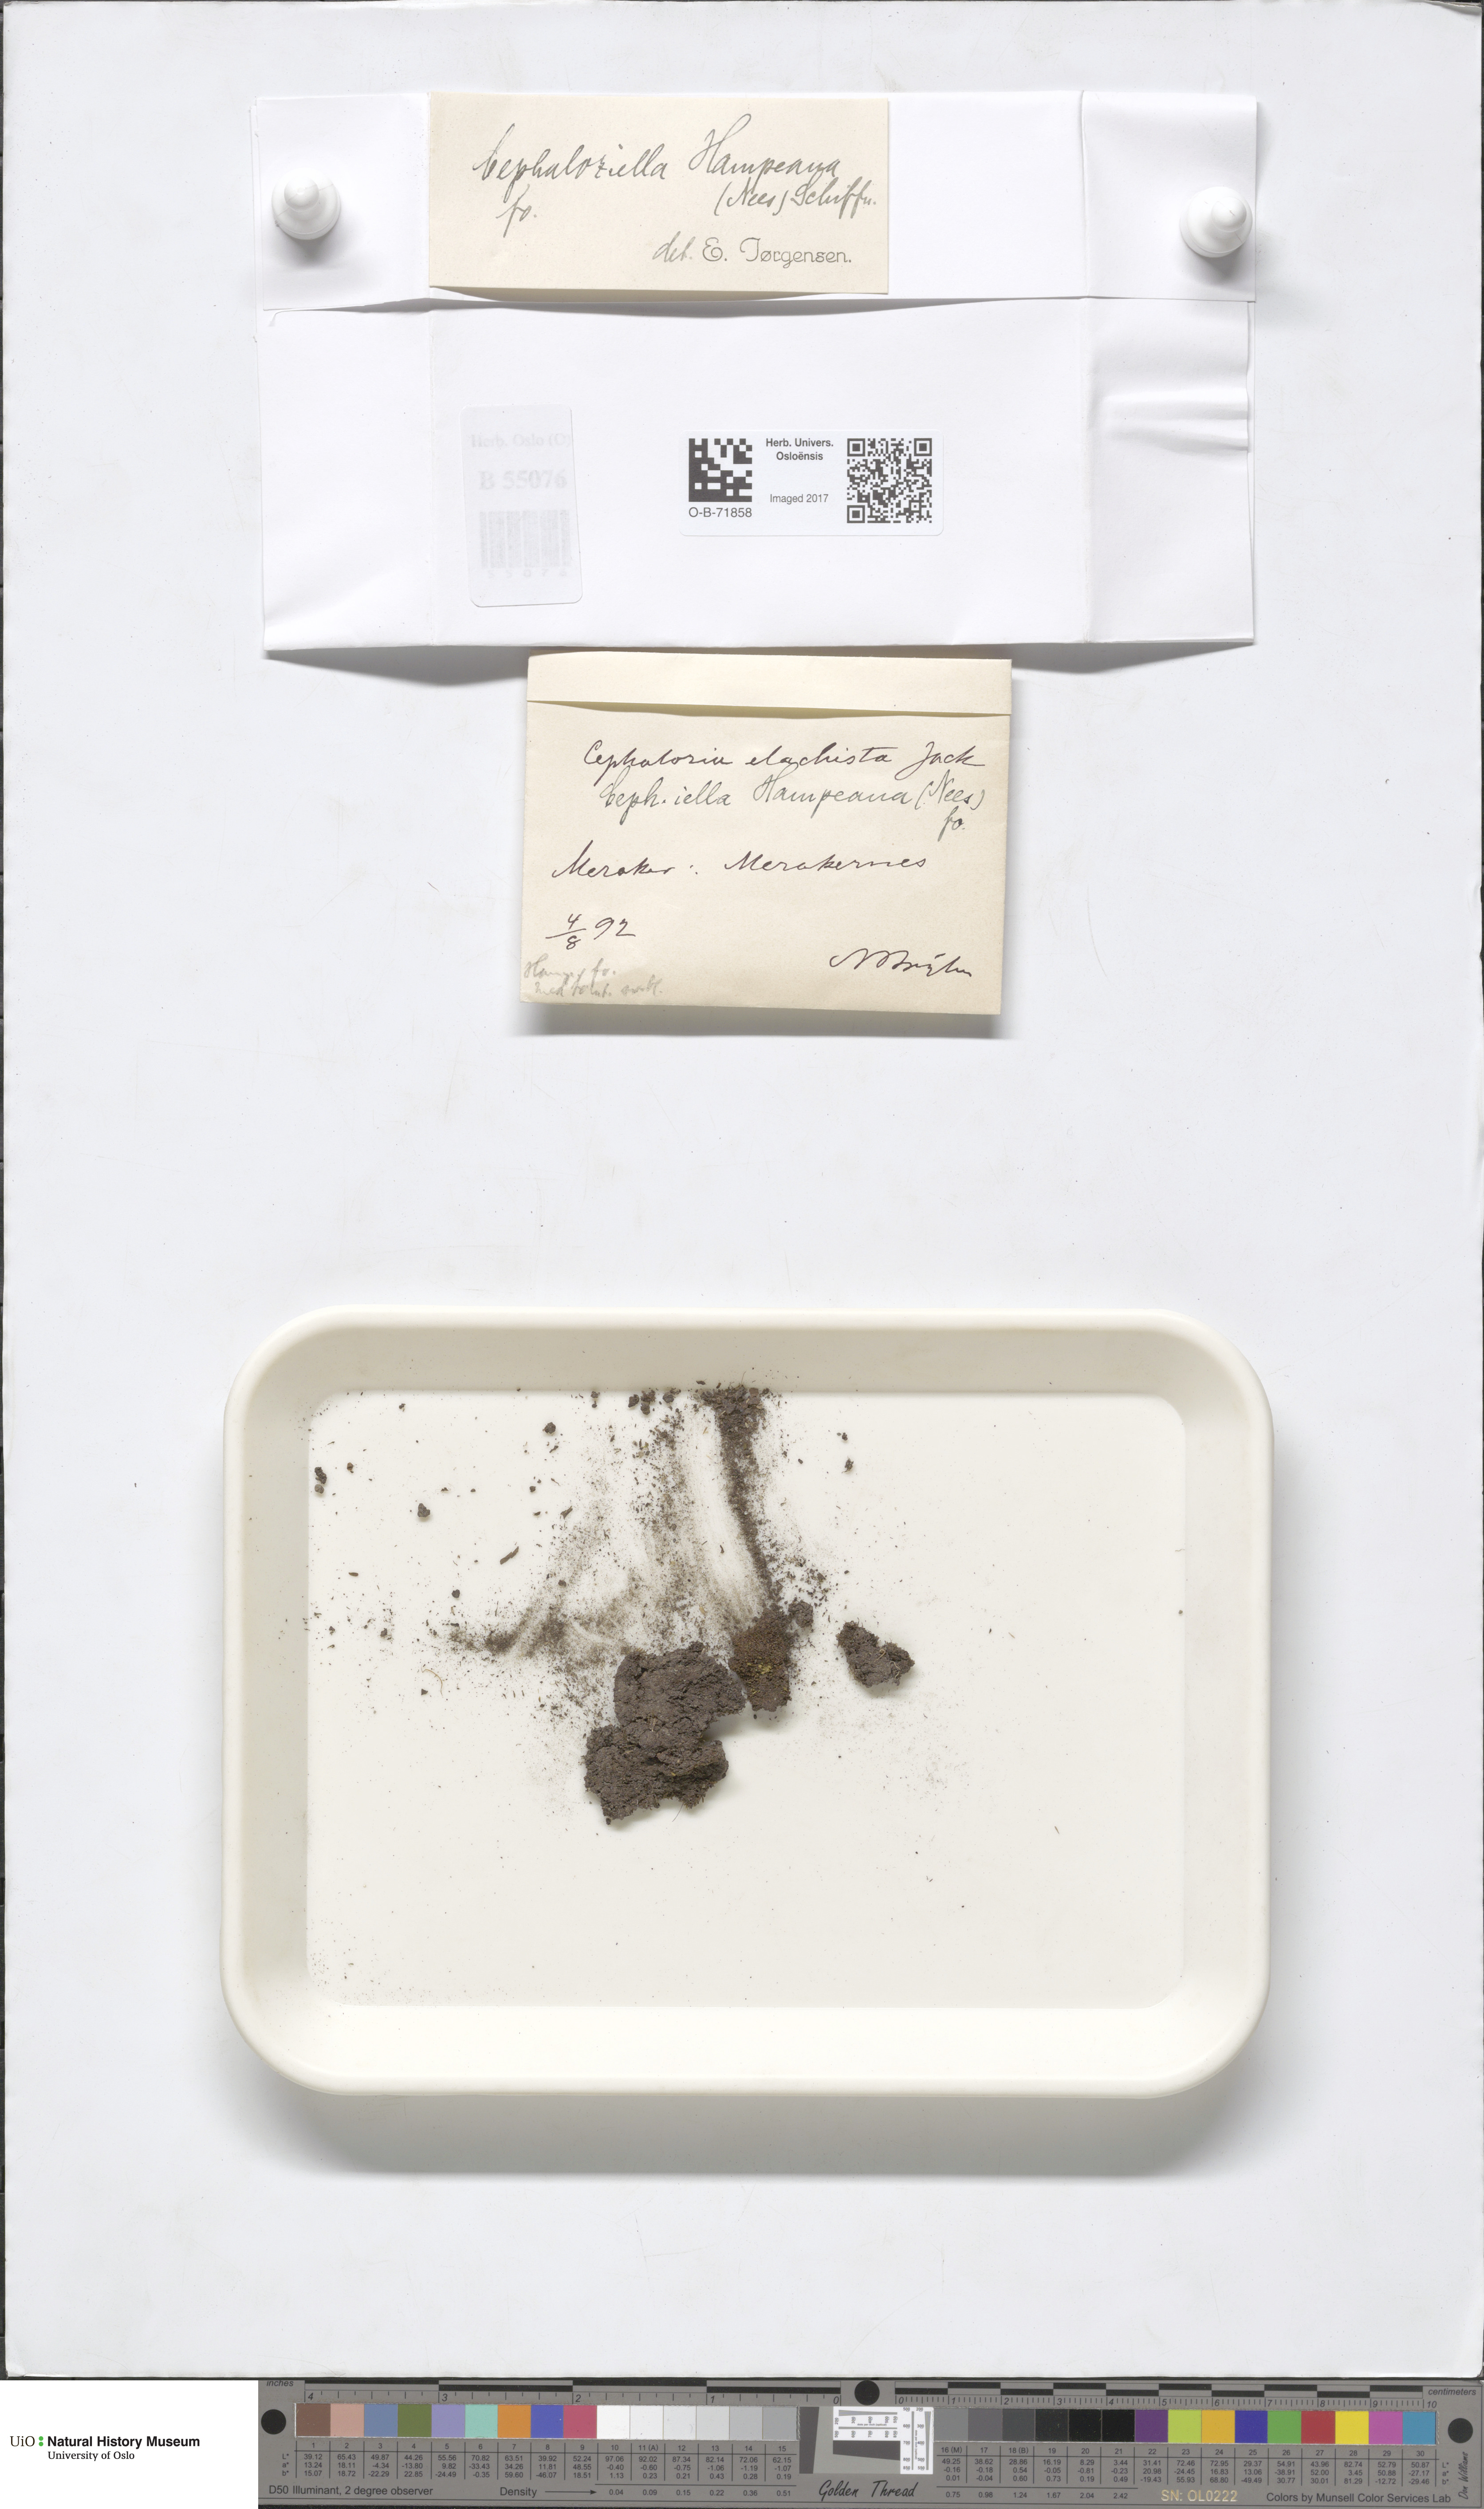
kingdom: Plantae
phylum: Marchantiophyta
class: Jungermanniopsida
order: Jungermanniales
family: Cephaloziellaceae
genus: Cephaloziella
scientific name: Cephaloziella hampeana
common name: Hampe s threadwort
